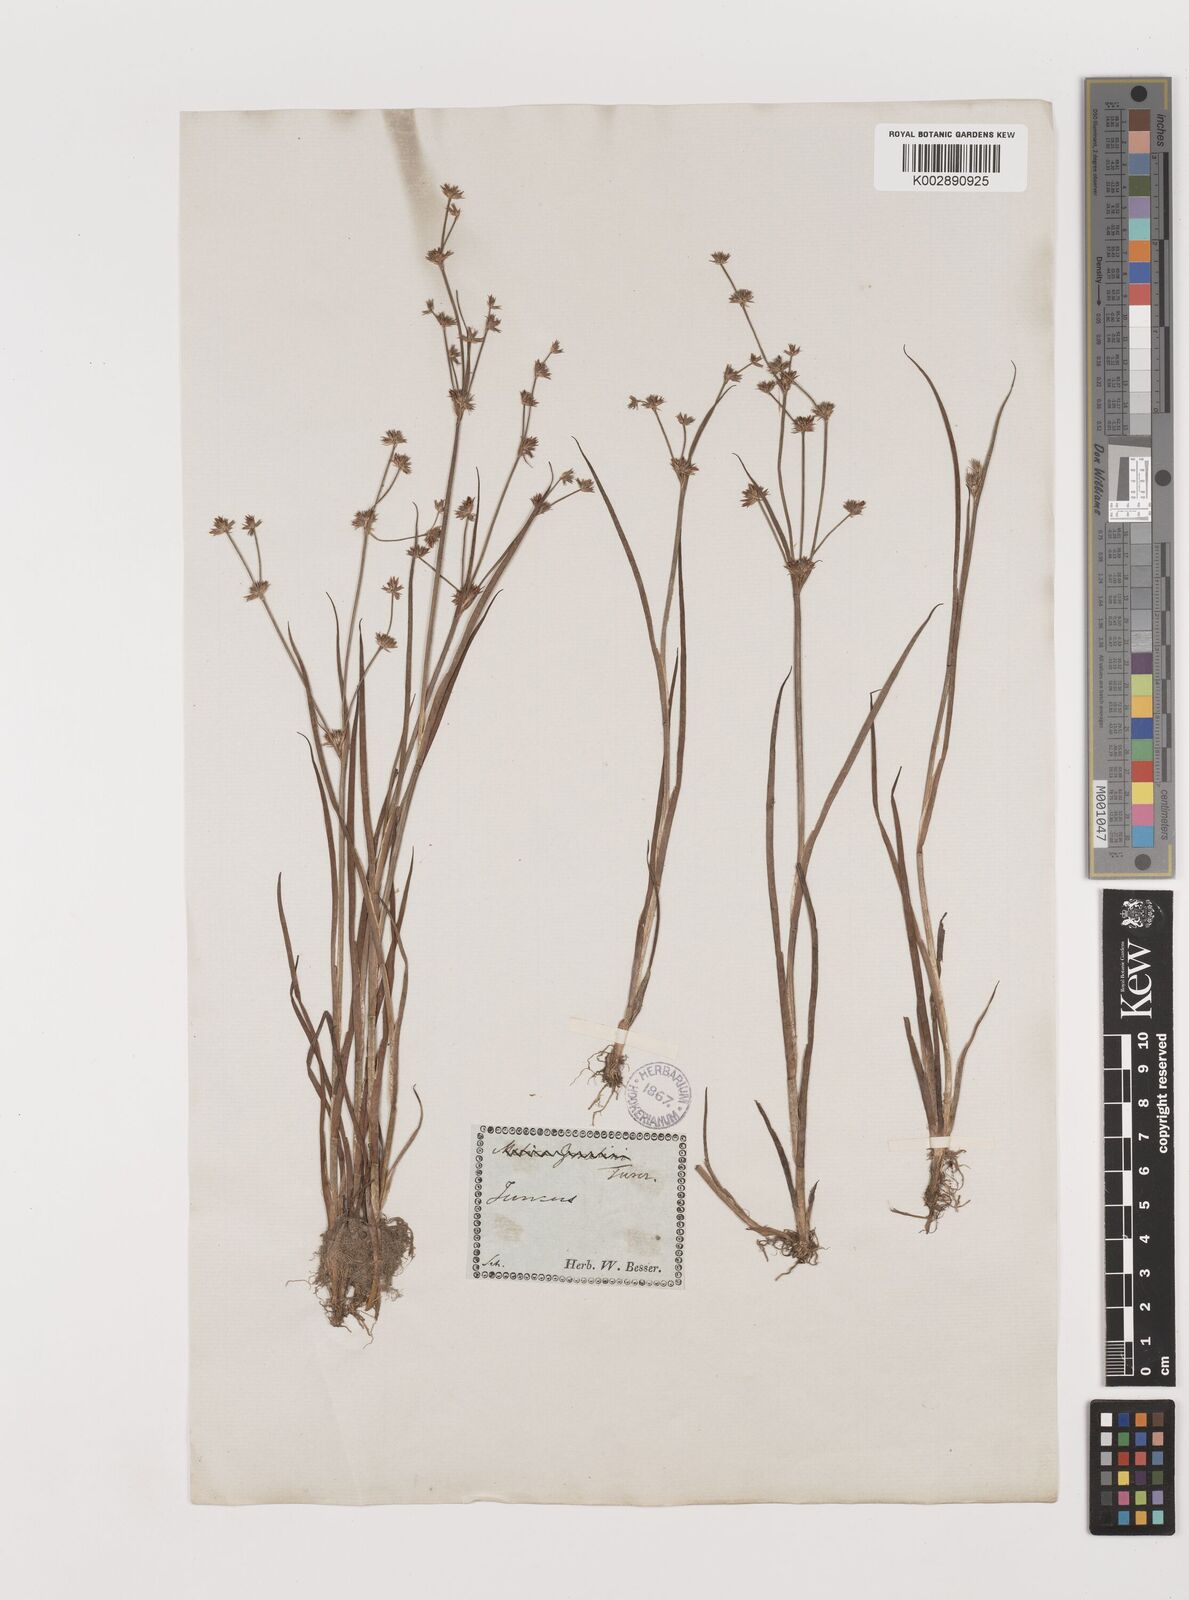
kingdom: Plantae
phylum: Tracheophyta
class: Liliopsida
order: Poales
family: Juncaceae
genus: Juncus
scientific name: Juncus
